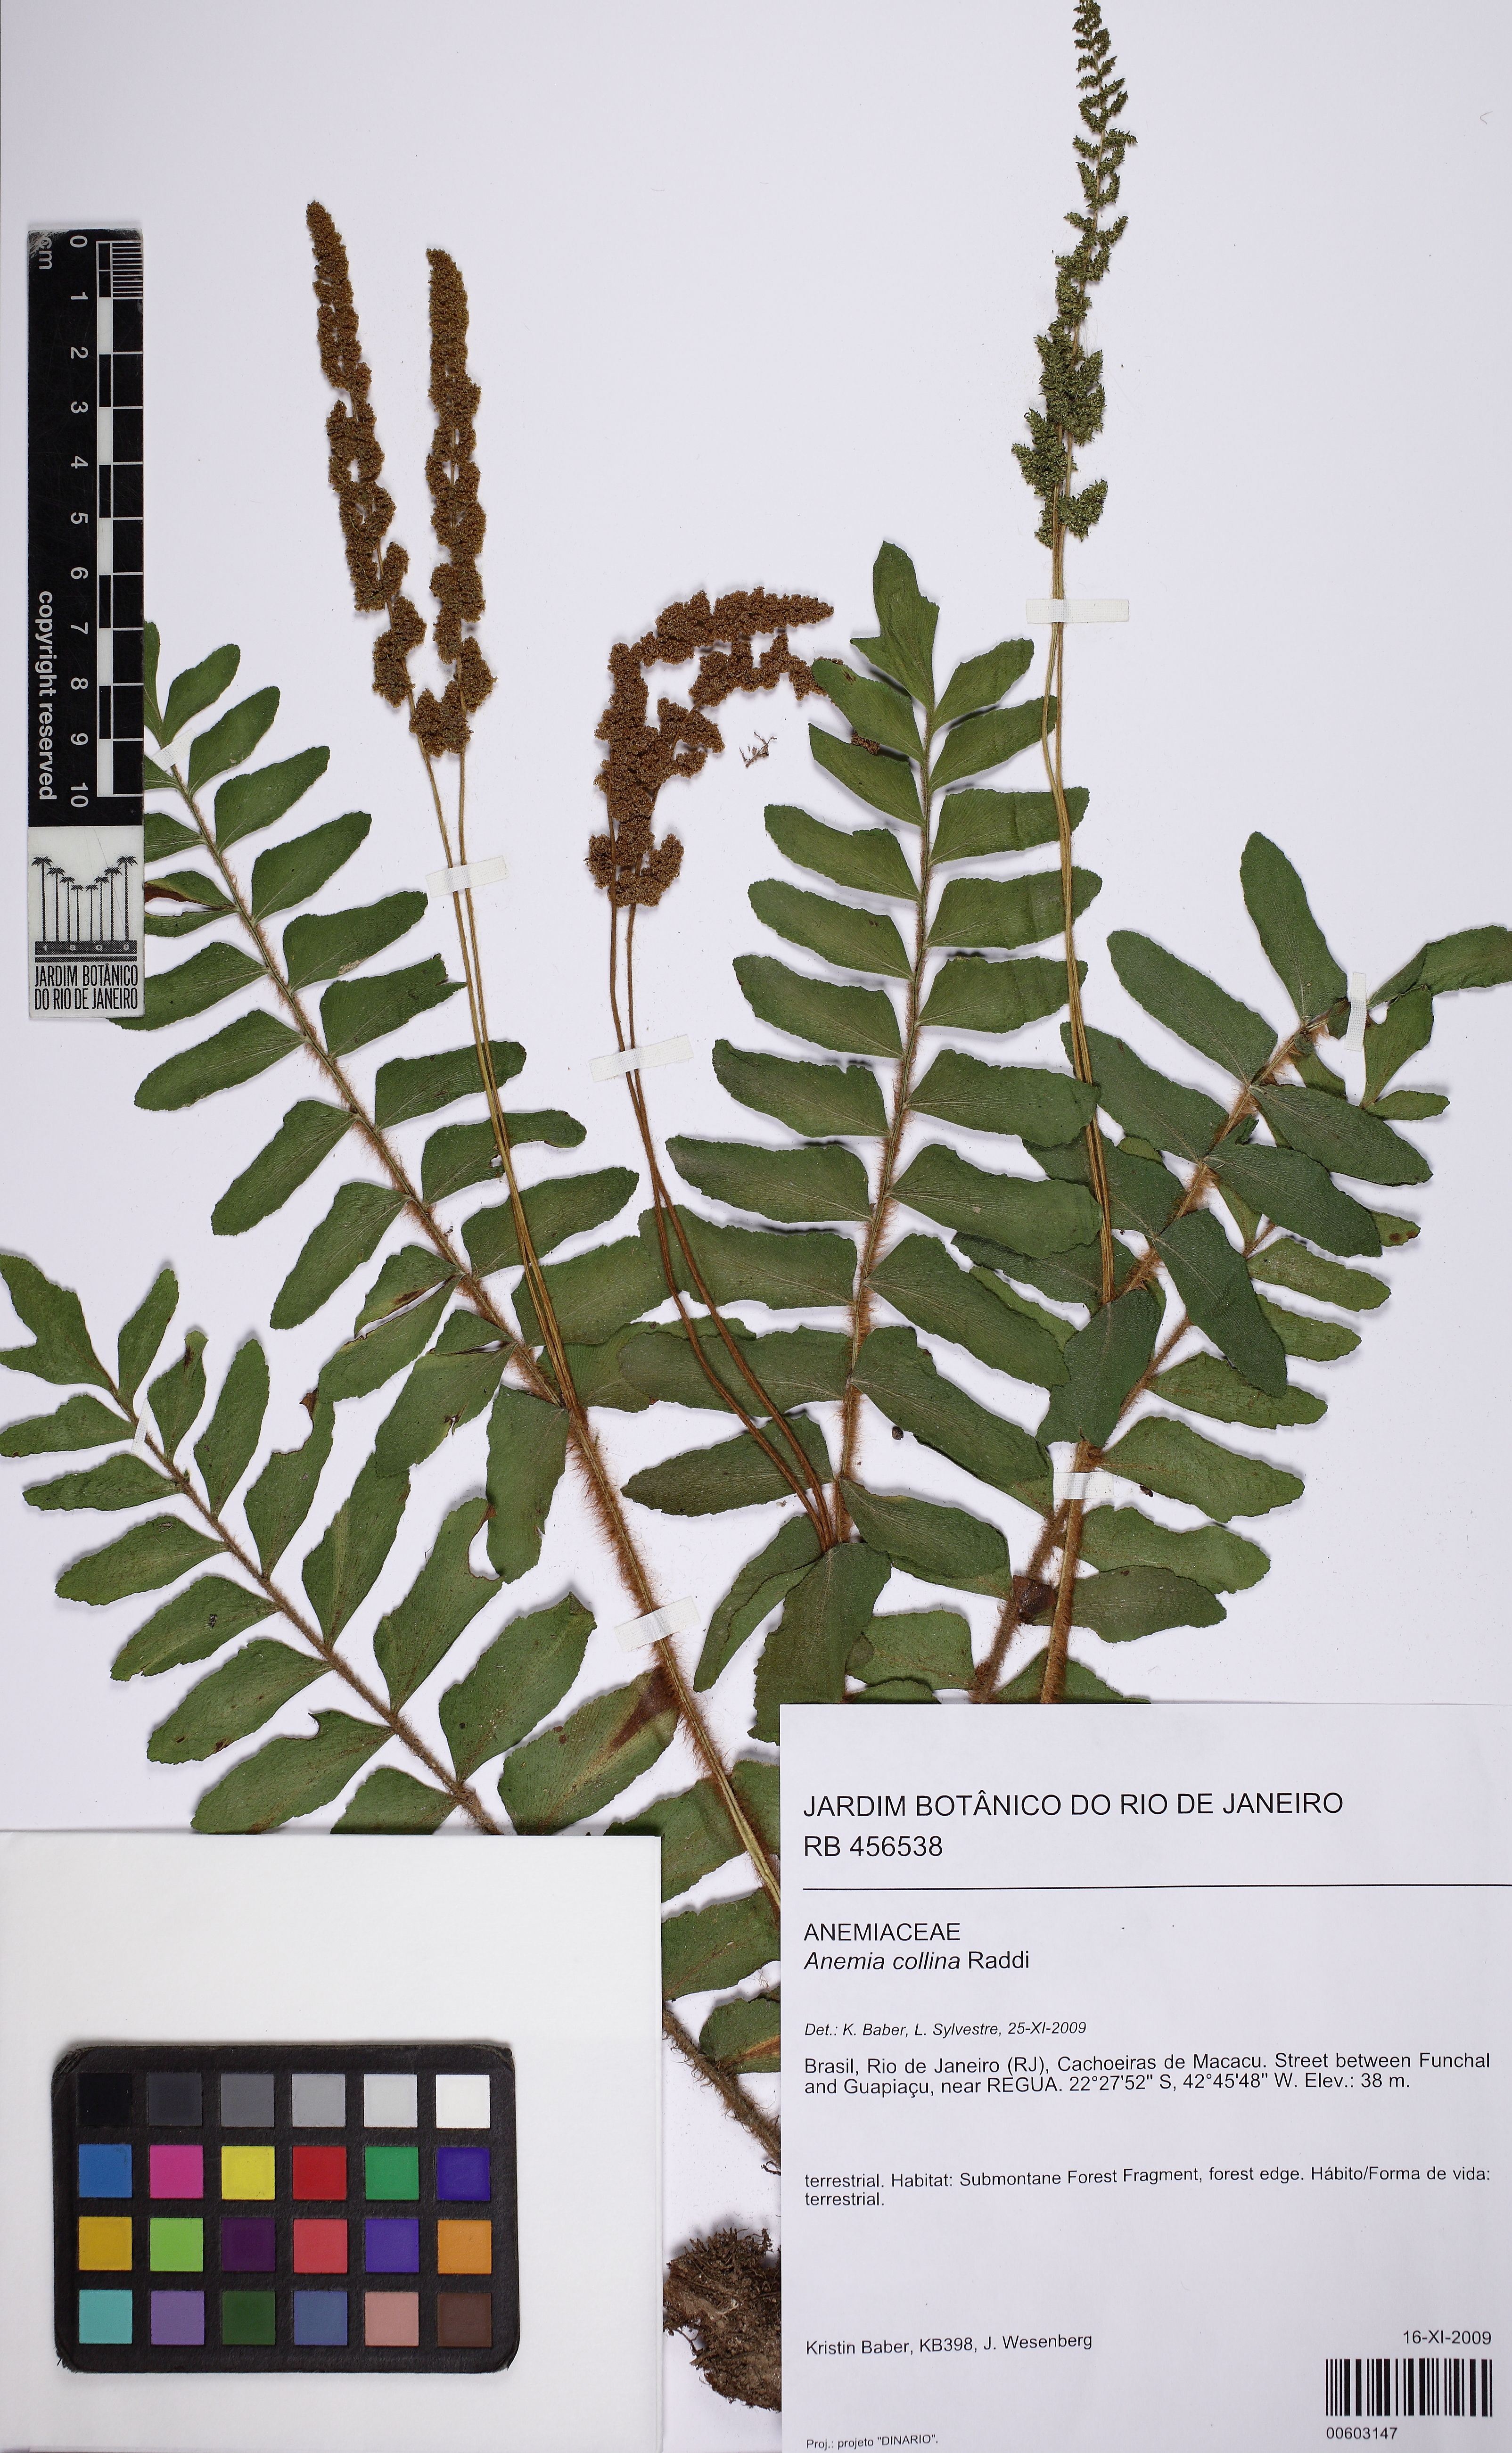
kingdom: Plantae
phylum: Tracheophyta
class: Polypodiopsida
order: Schizaeales
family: Anemiaceae
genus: Anemia
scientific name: Anemia collina
